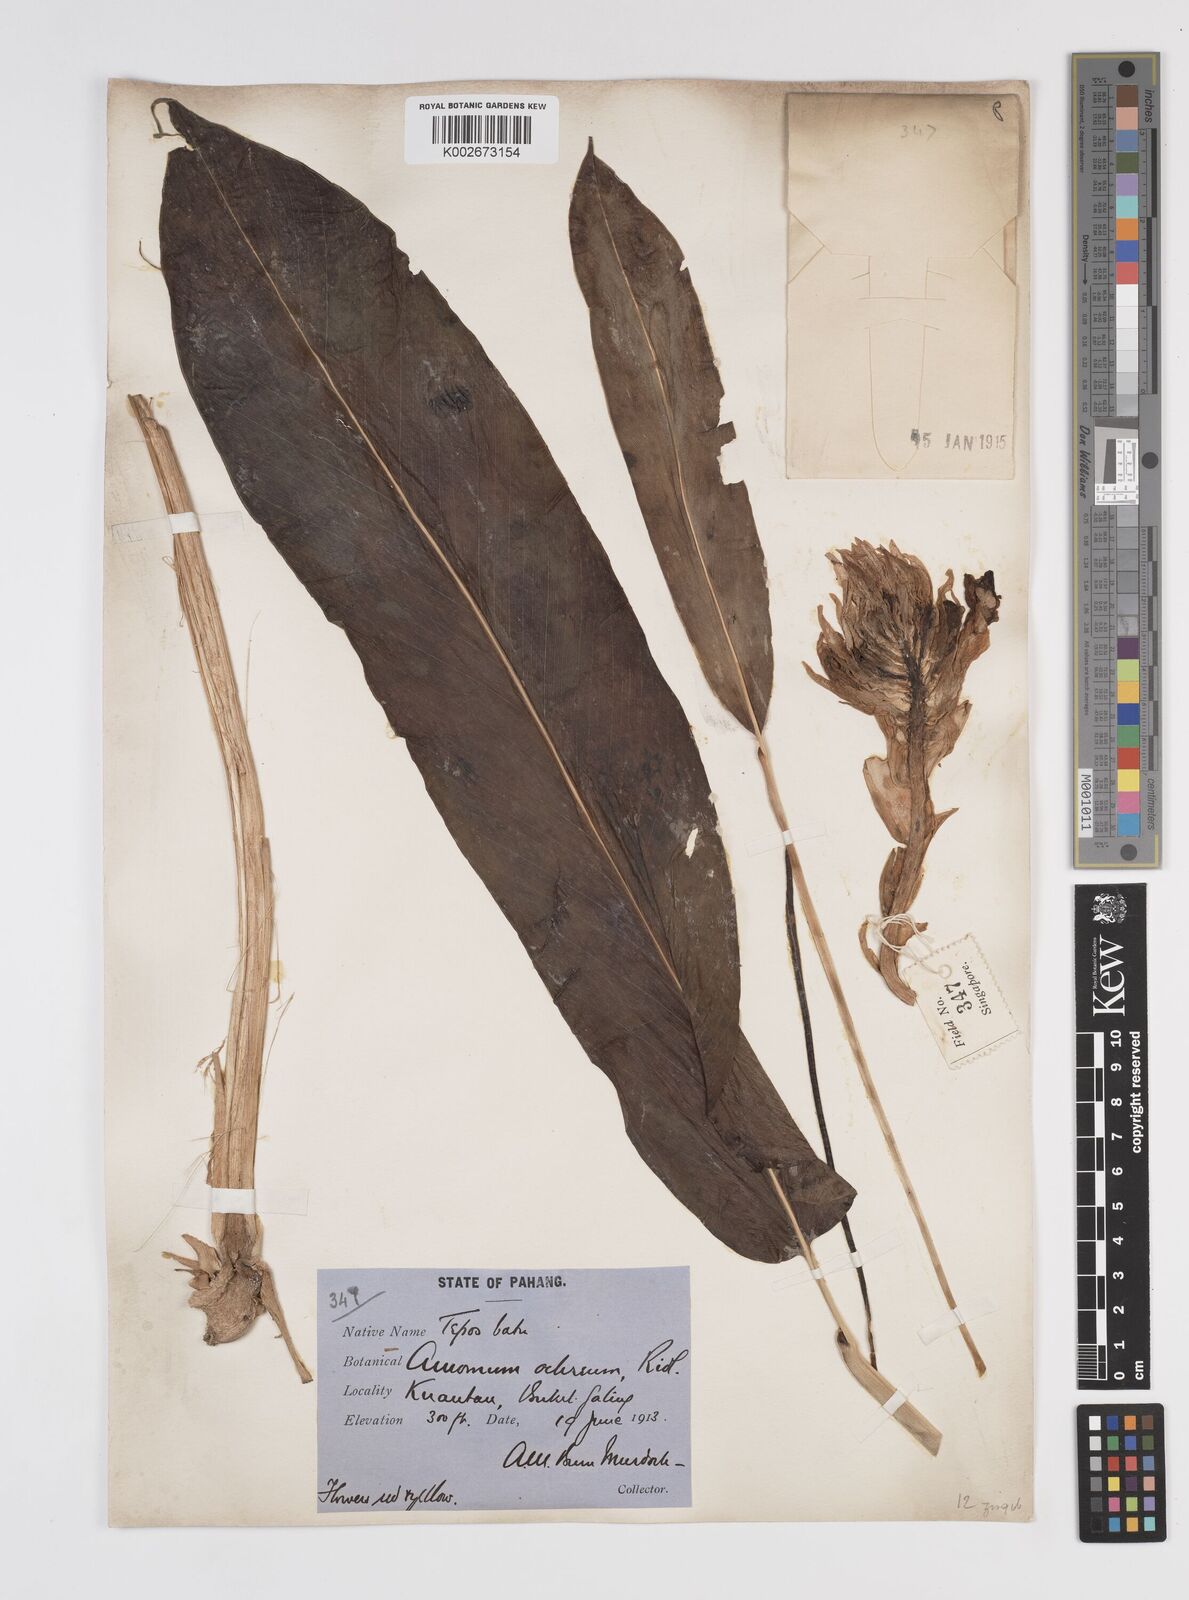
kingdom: Plantae
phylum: Tracheophyta
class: Liliopsida
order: Zingiberales
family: Zingiberaceae
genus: Meistera
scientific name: Meistera ochrea
